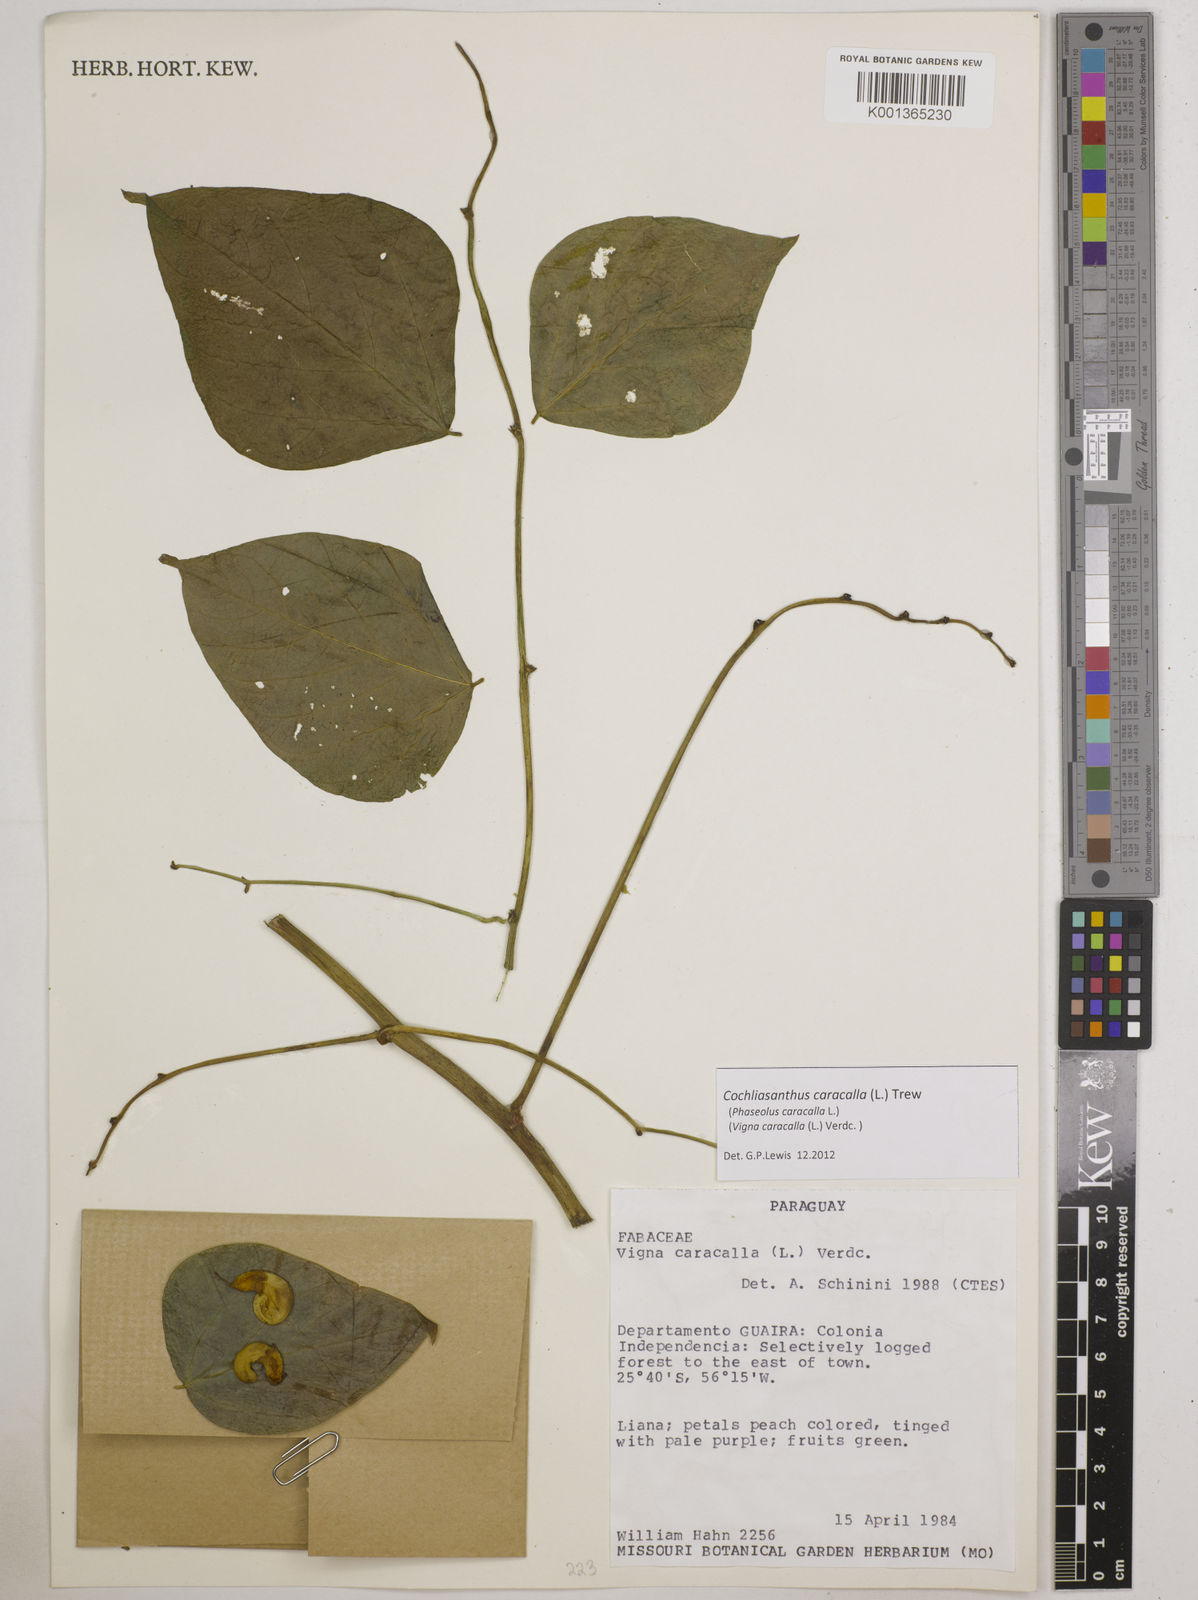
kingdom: Plantae
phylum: Tracheophyta
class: Magnoliopsida
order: Fabales
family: Fabaceae
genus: Cochliasanthus
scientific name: Cochliasanthus caracalla
